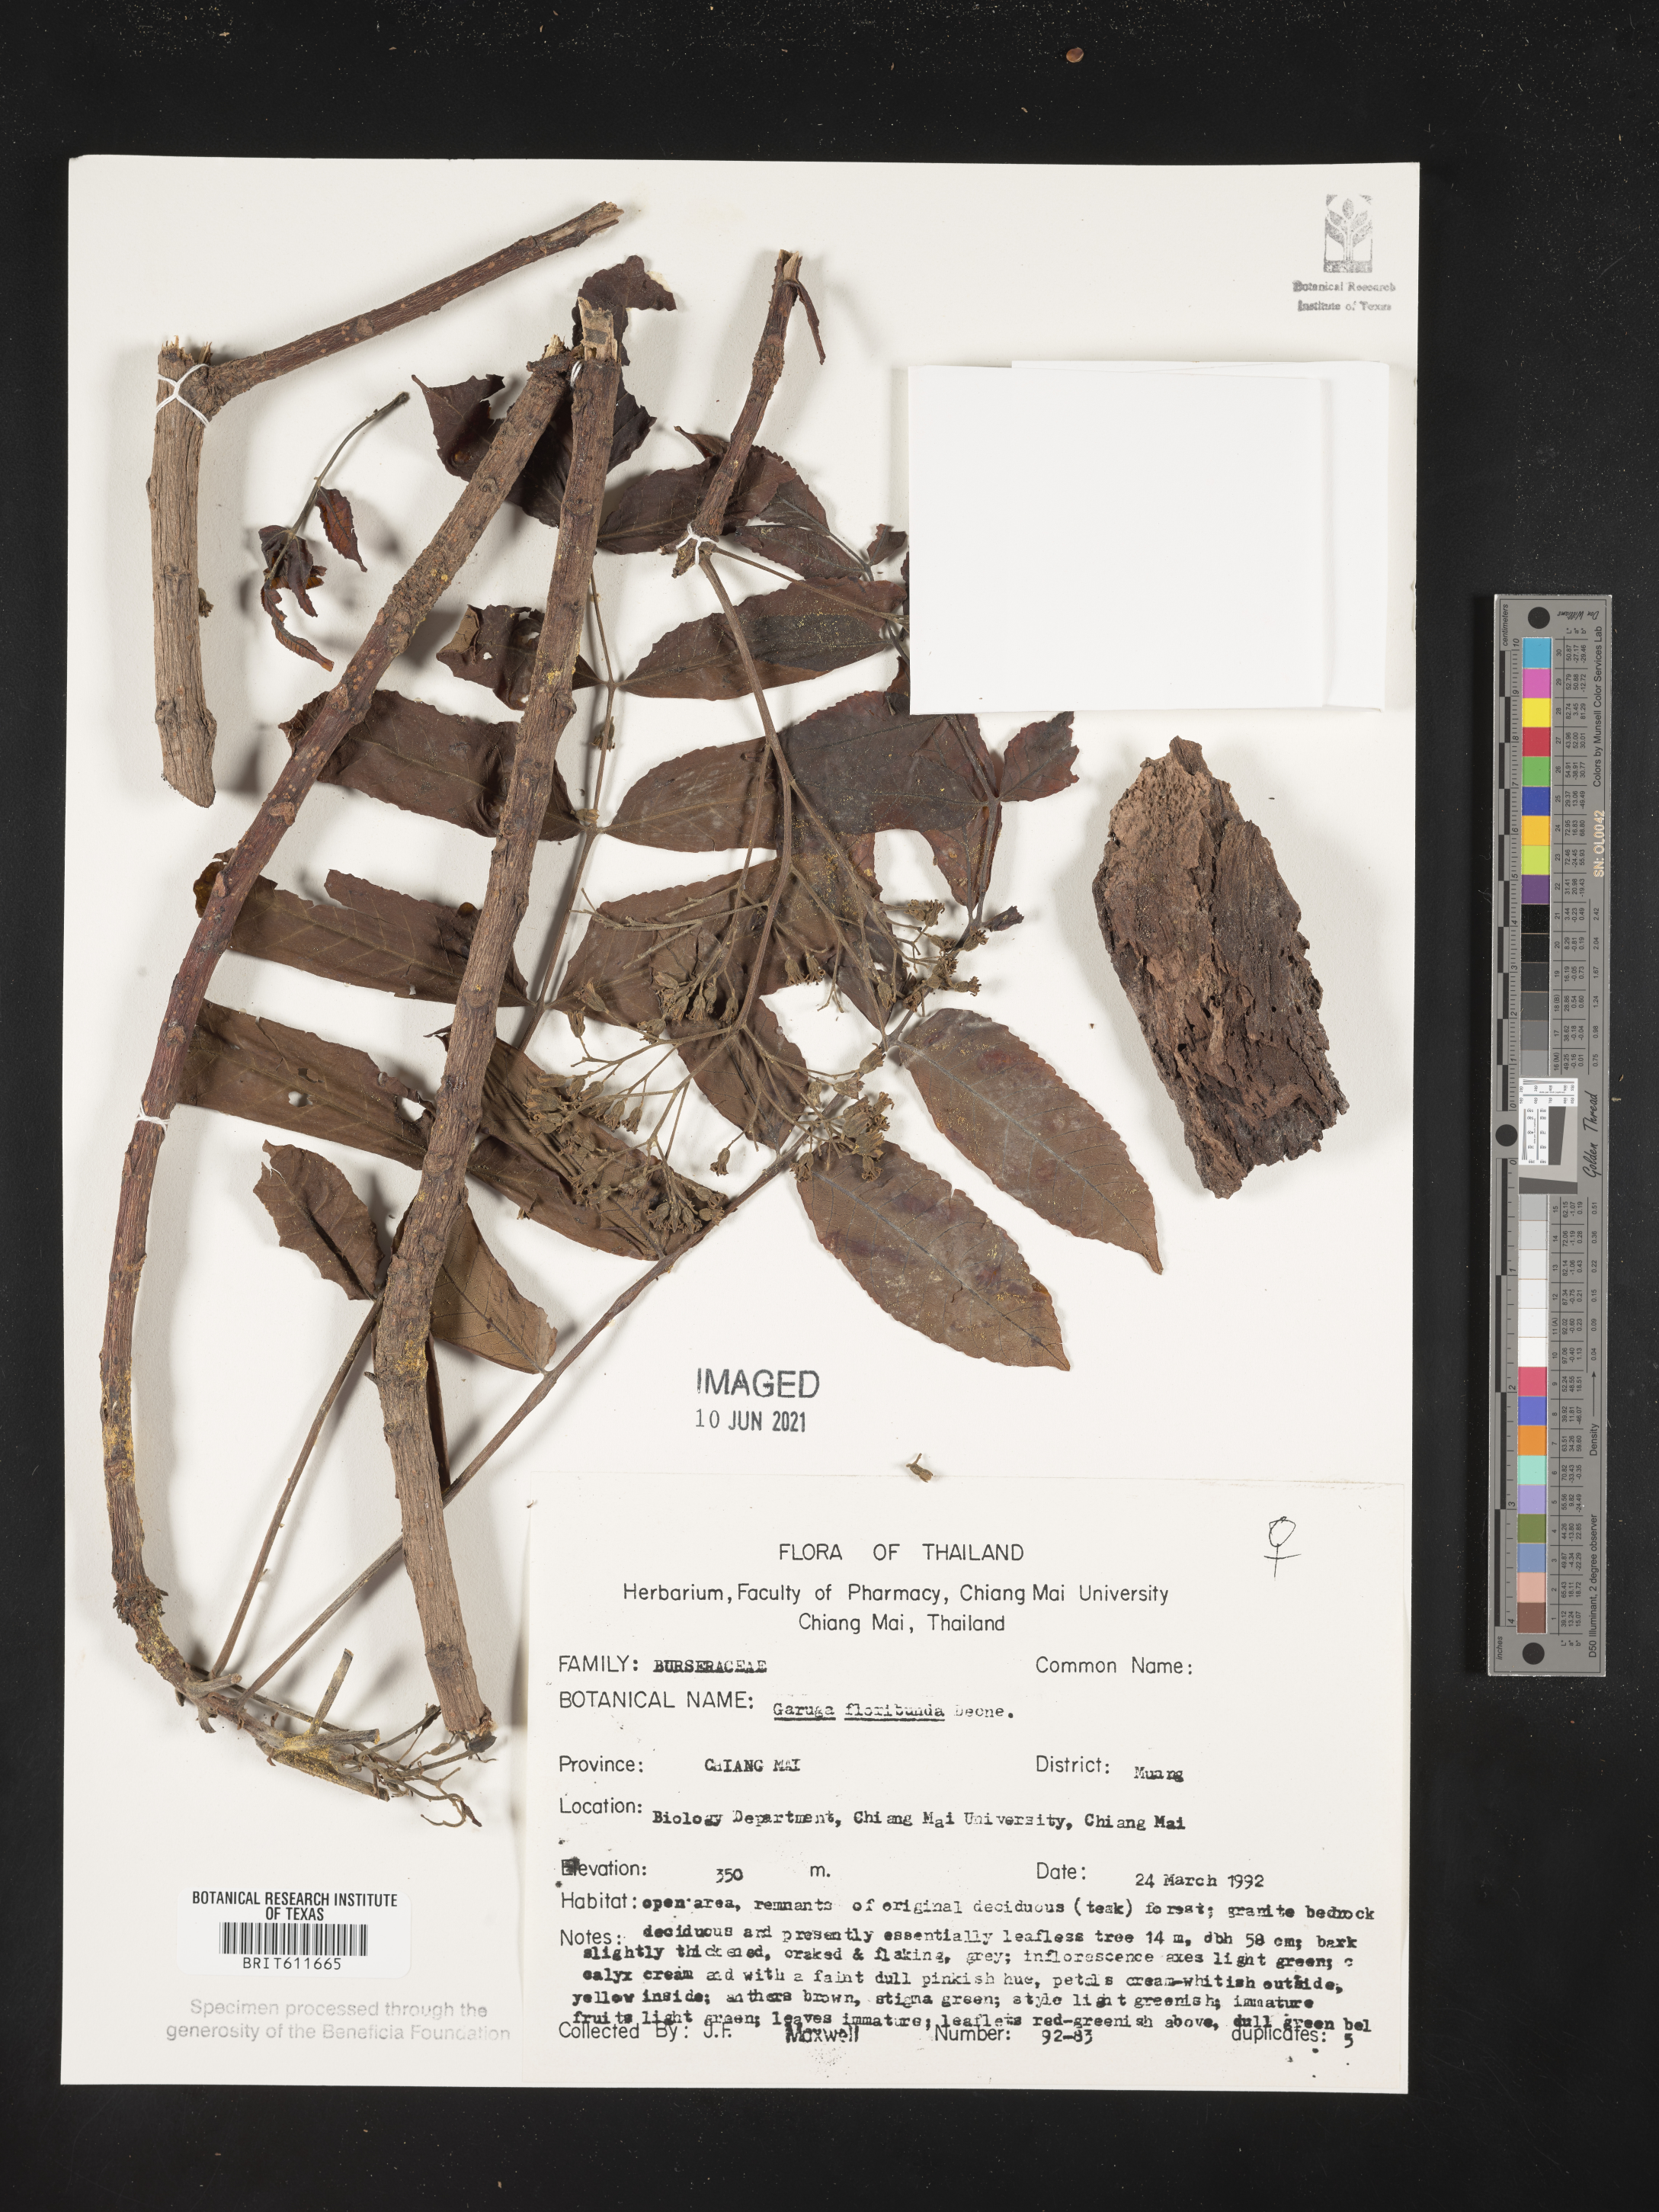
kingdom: Plantae
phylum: Tracheophyta
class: Magnoliopsida
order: Sapindales
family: Burseraceae
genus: Garuga
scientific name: Garuga floribunda
